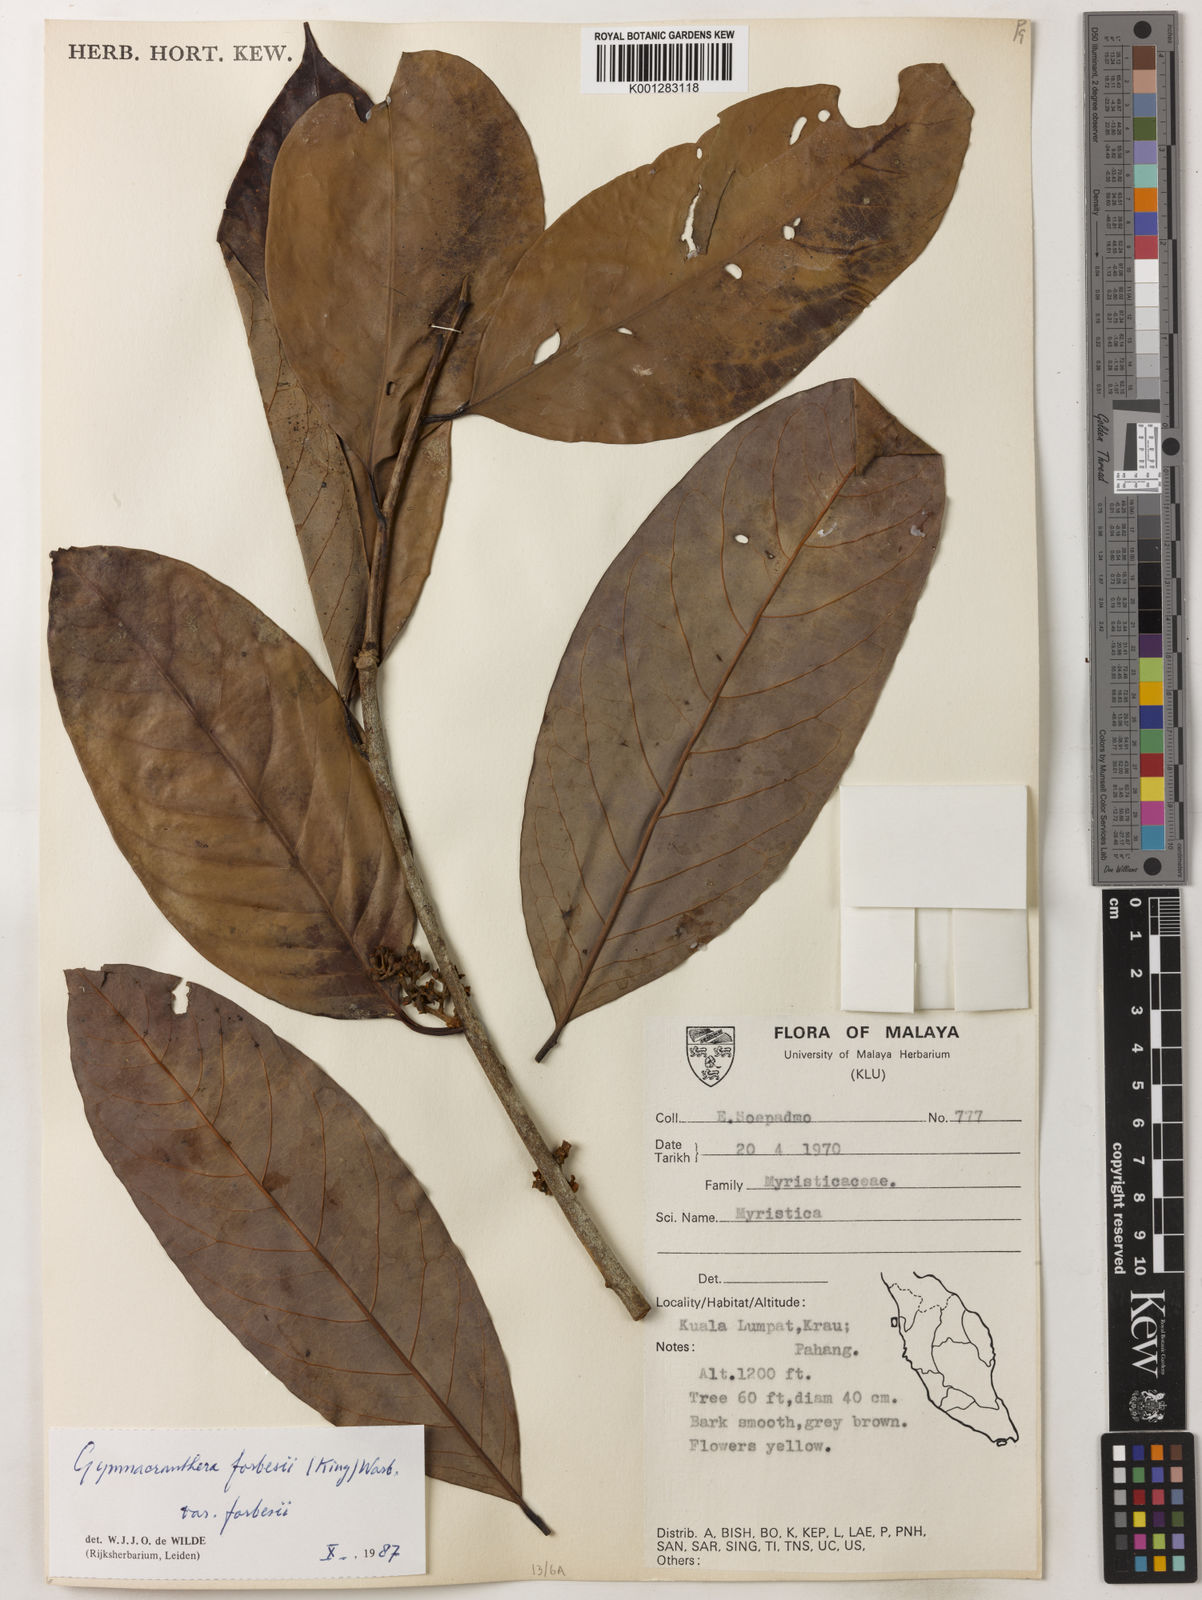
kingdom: Plantae
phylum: Tracheophyta
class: Magnoliopsida
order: Magnoliales
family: Myristicaceae
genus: Gymnacranthera
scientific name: Gymnacranthera forbesii
